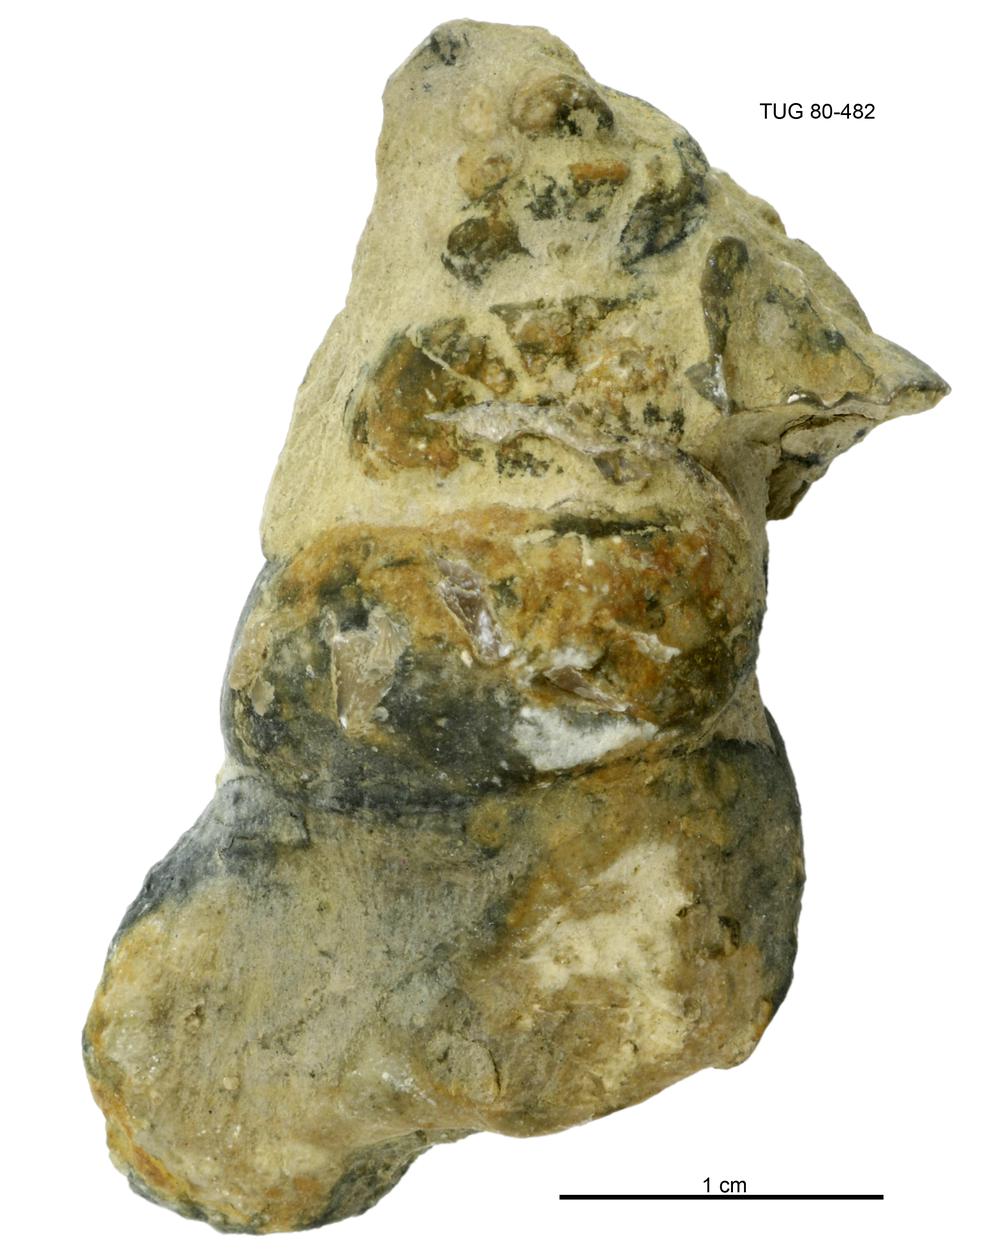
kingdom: Animalia
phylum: Mollusca
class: Gastropoda
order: Pleurotomariida
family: Murchisoniidae
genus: Murchisonia
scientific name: Murchisonia insignis
